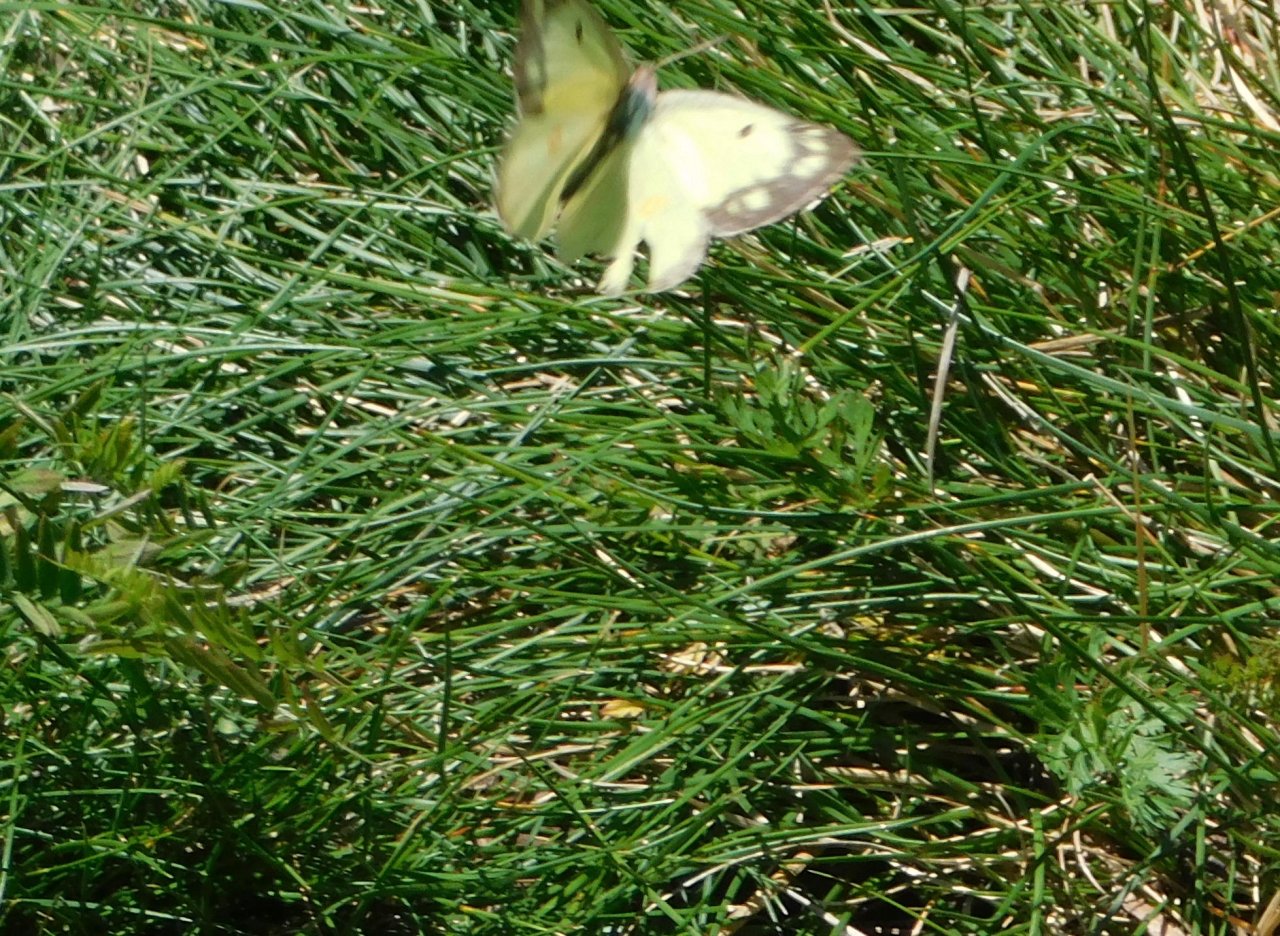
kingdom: Animalia
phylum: Arthropoda
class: Insecta
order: Lepidoptera
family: Pieridae
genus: Colias
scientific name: Colias philodice
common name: Clouded Sulphur
